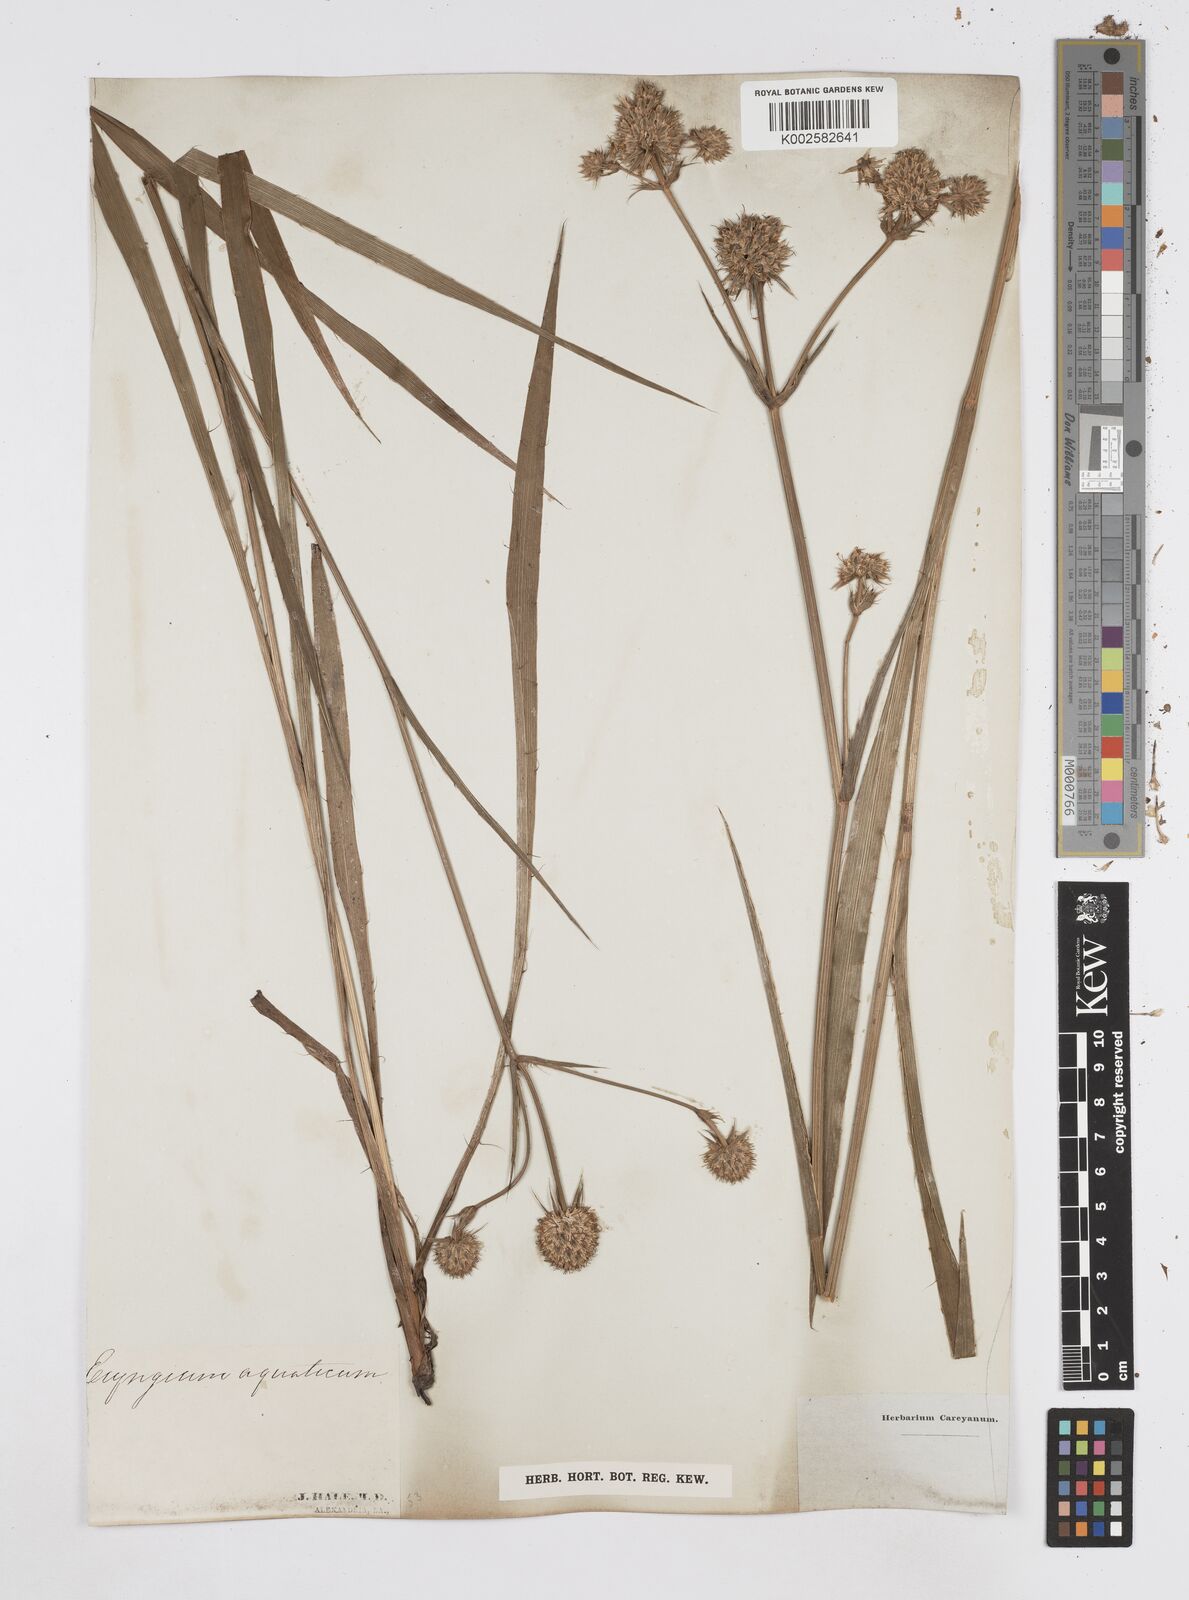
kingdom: Plantae
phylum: Tracheophyta
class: Magnoliopsida
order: Apiales
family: Apiaceae
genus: Eryngium
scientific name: Eryngium yuccifolium
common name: Button eryngo
